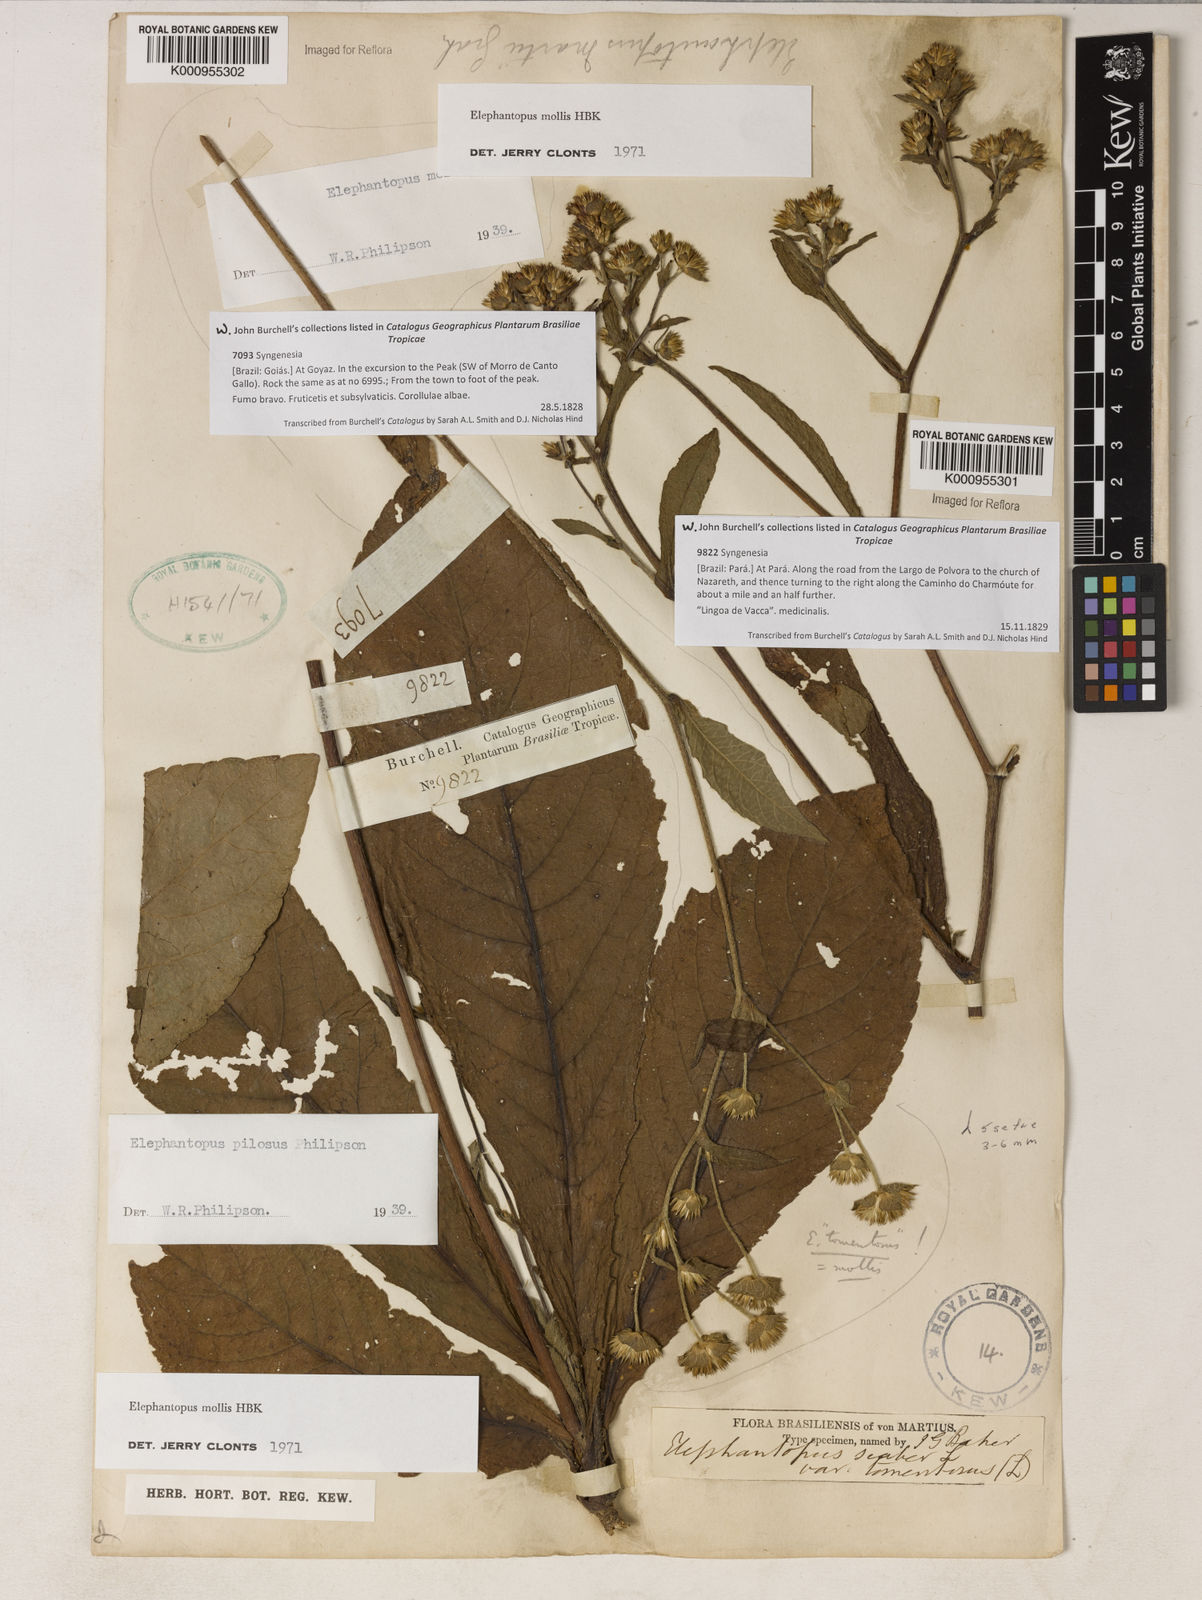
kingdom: Plantae
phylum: Tracheophyta
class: Magnoliopsida
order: Asterales
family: Asteraceae
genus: Elephantopus
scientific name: Elephantopus mollis
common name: Soft elephantsfoot
